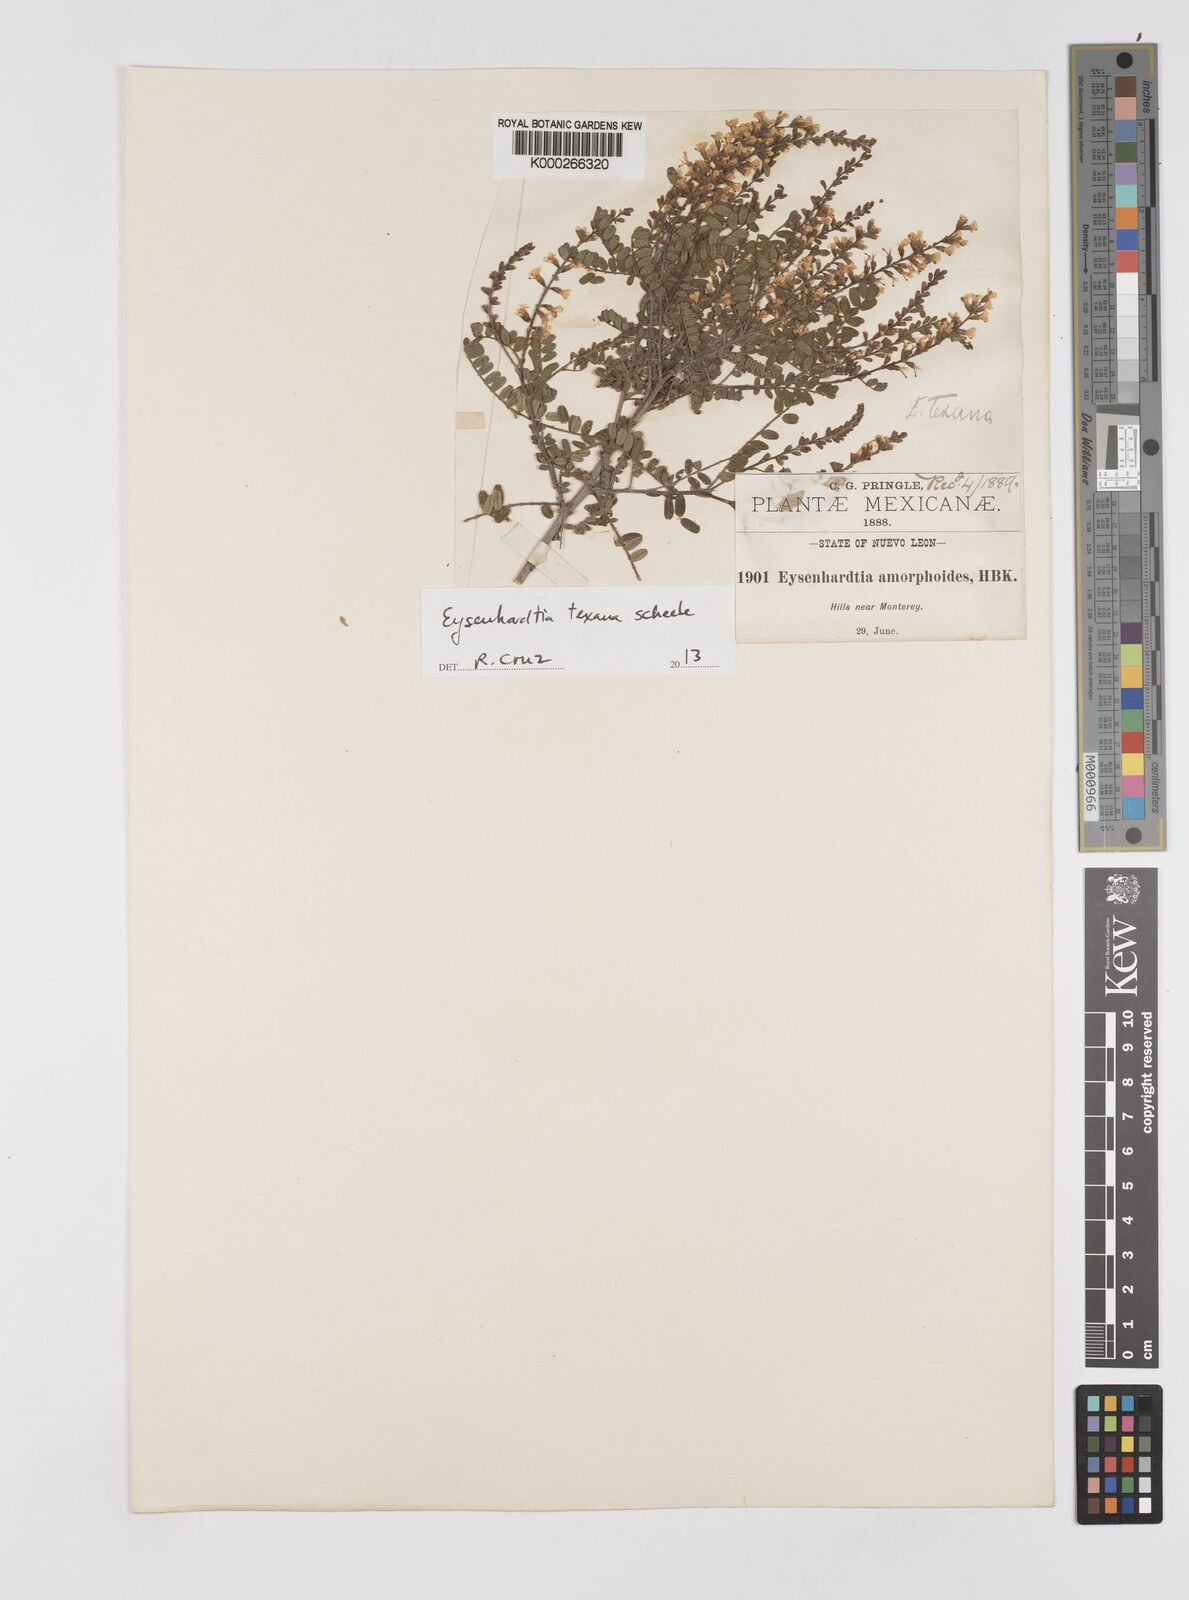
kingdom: Plantae
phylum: Tracheophyta
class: Magnoliopsida
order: Fabales
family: Fabaceae
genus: Eysenhardtia
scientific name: Eysenhardtia texana
